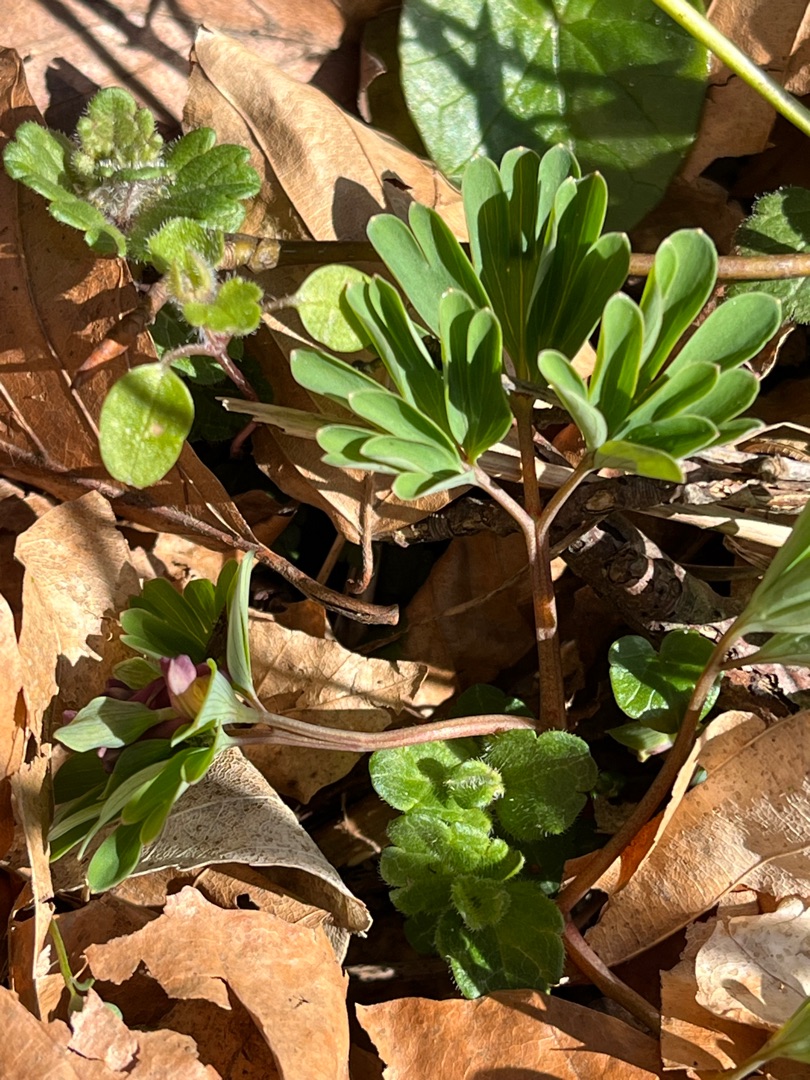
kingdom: Plantae
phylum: Tracheophyta
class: Magnoliopsida
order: Ranunculales
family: Papaveraceae
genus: Corydalis
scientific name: Corydalis intermedia
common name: Liden lærkespore
